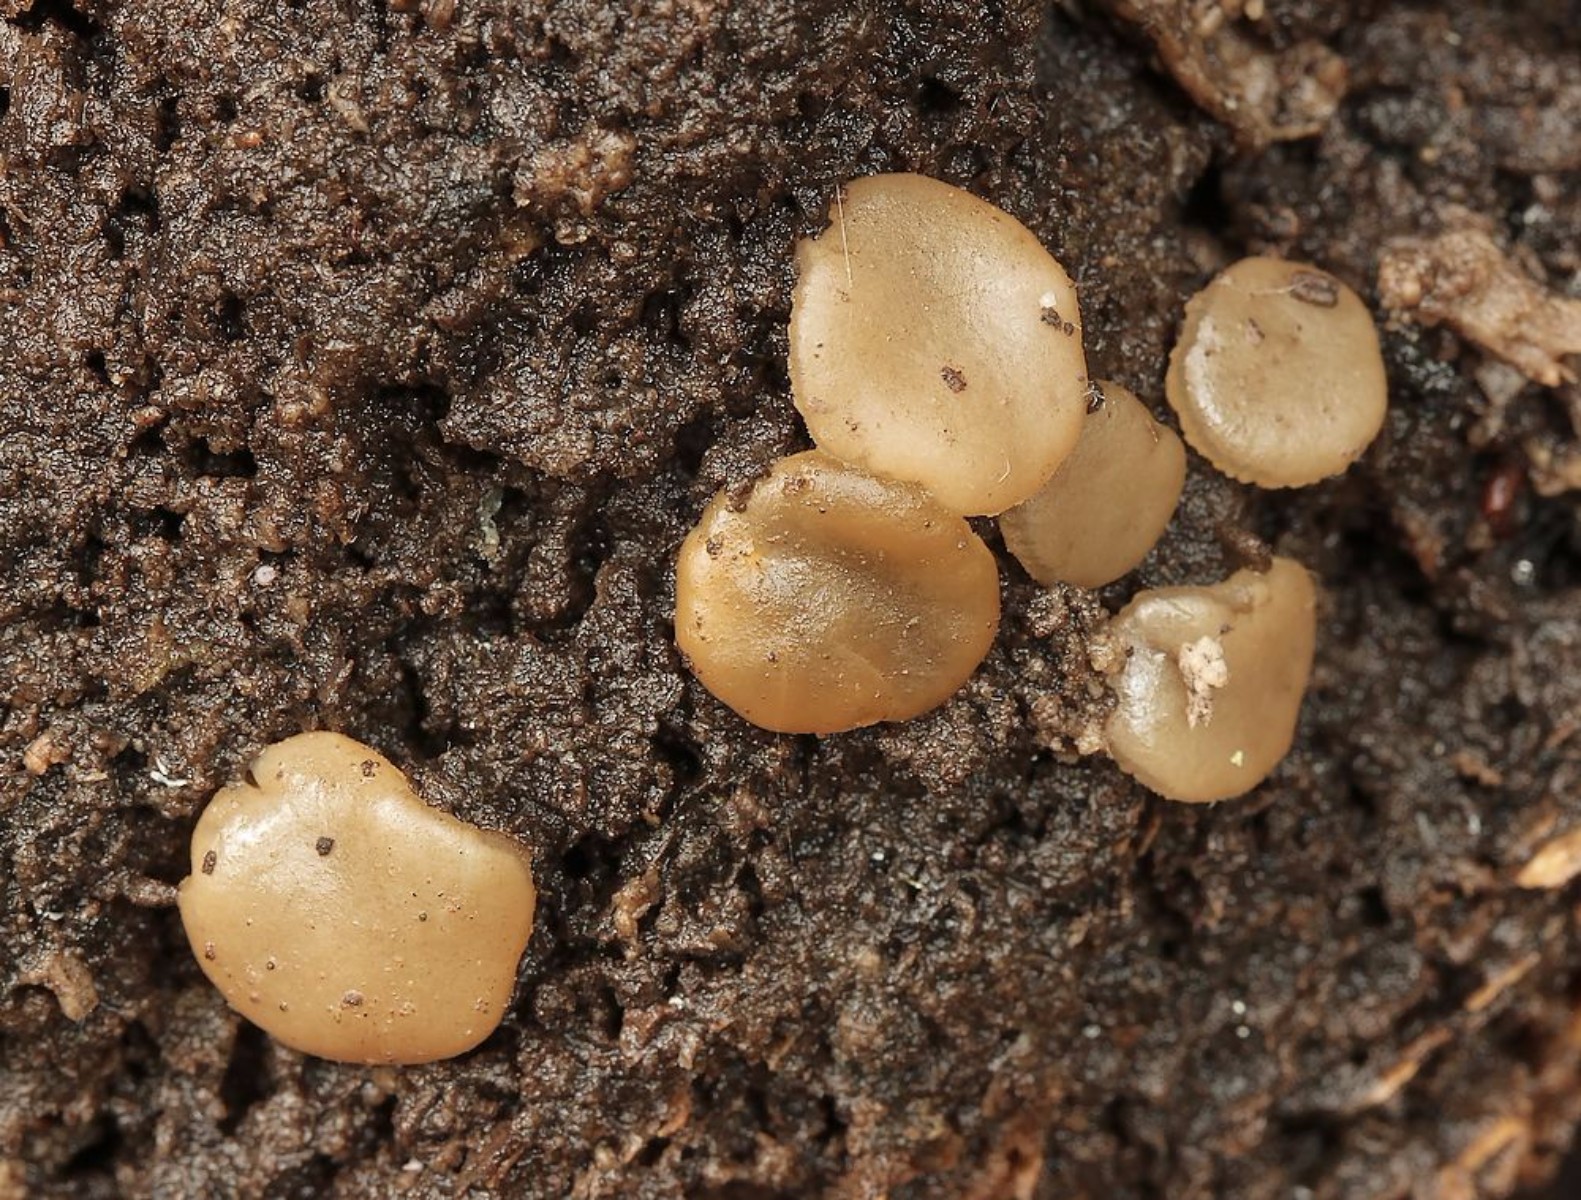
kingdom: Fungi
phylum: Ascomycota
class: Pezizomycetes
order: Pezizales
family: Pezizaceae
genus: Adelphella
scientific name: Adelphella babingtonii
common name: almindelig bækbæger
